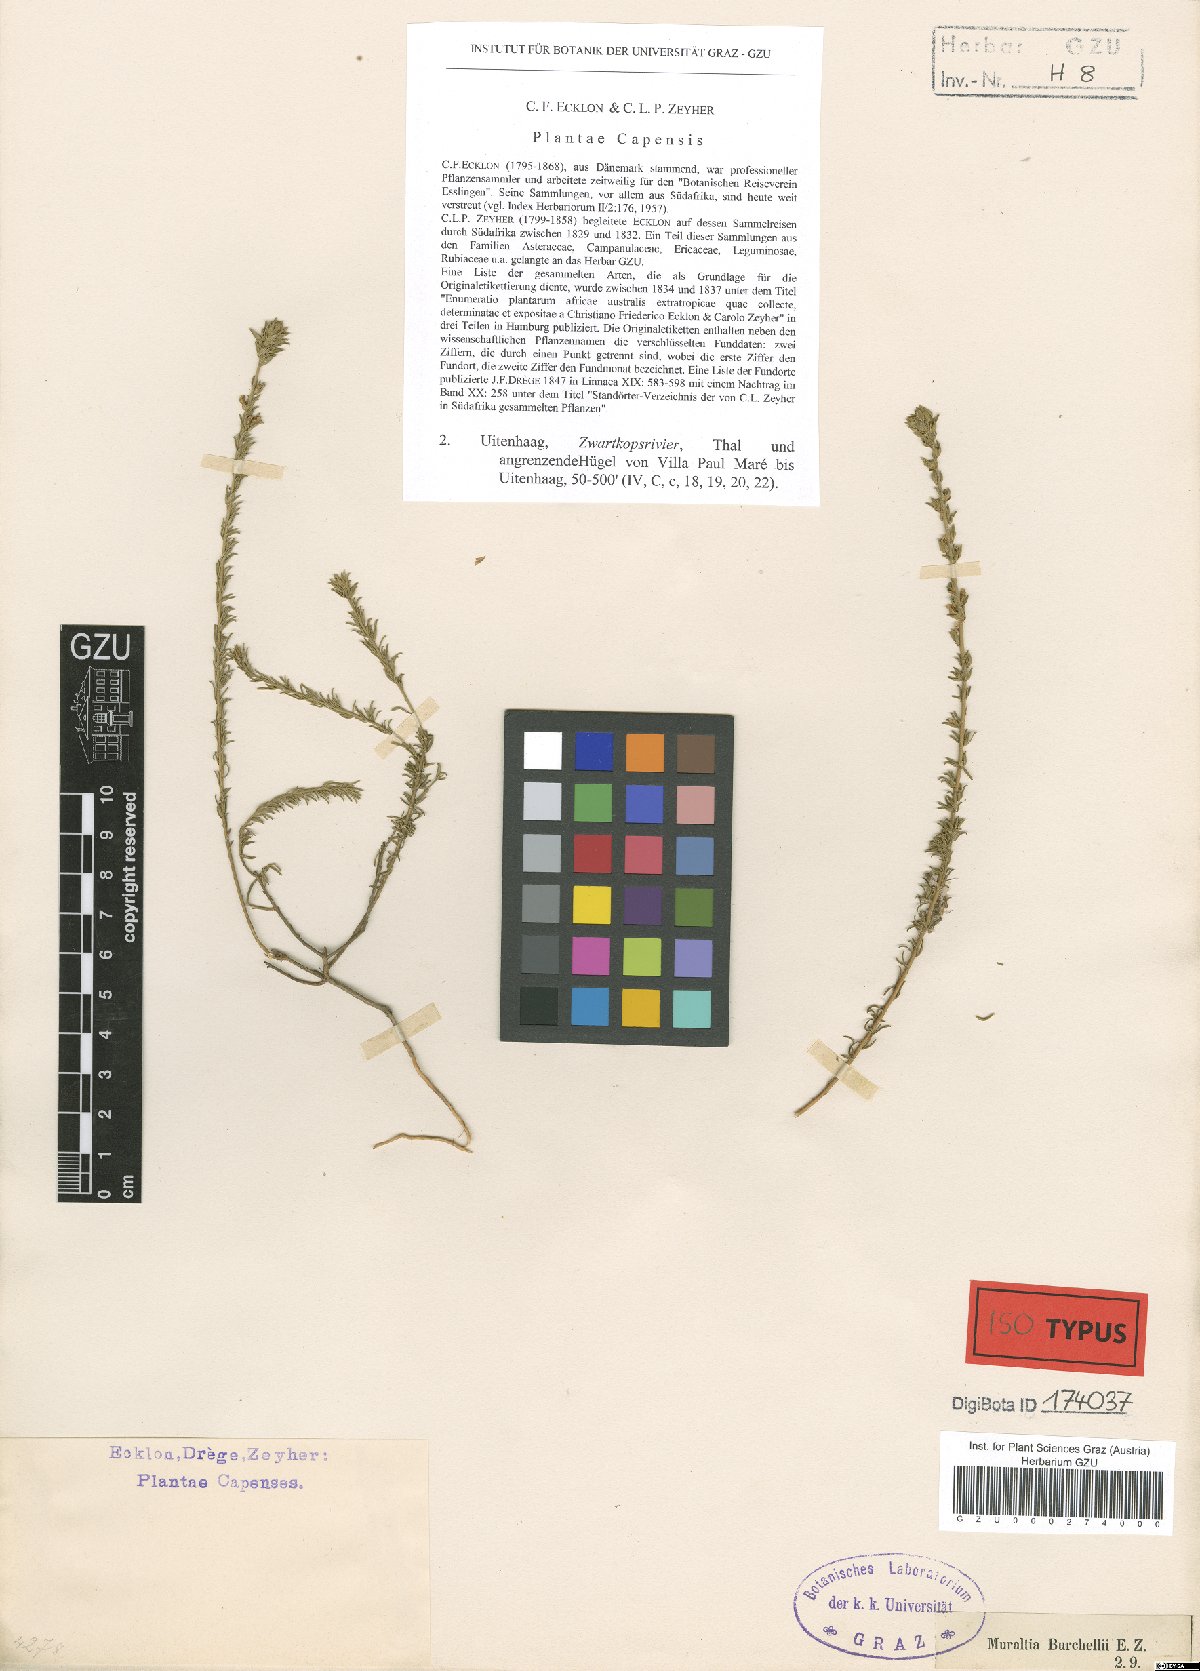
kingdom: Plantae
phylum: Tracheophyta
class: Magnoliopsida
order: Fabales
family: Polygalaceae
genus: Muraltia
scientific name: Muraltia alopecuroides
